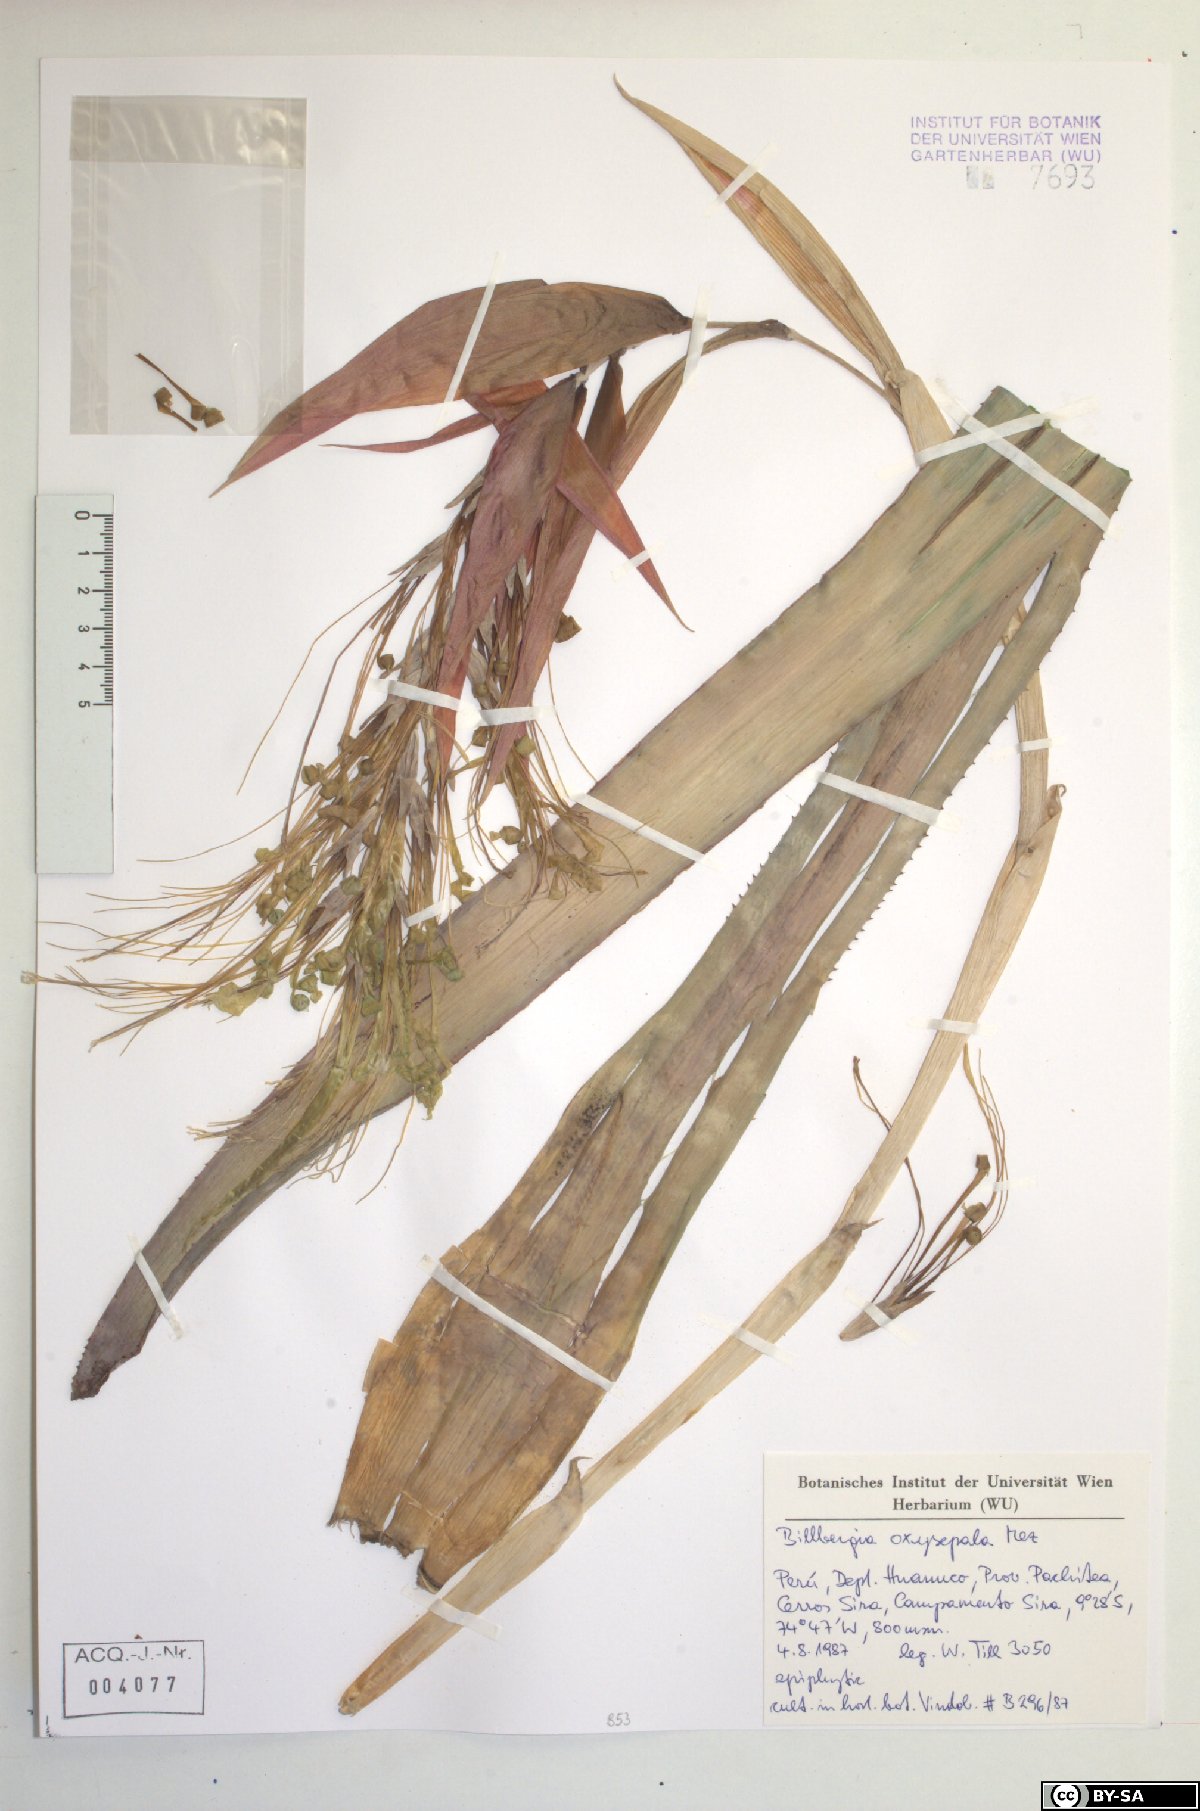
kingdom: Plantae
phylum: Tracheophyta
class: Liliopsida
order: Poales
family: Bromeliaceae
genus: Billbergia
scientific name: Billbergia oxysepala
